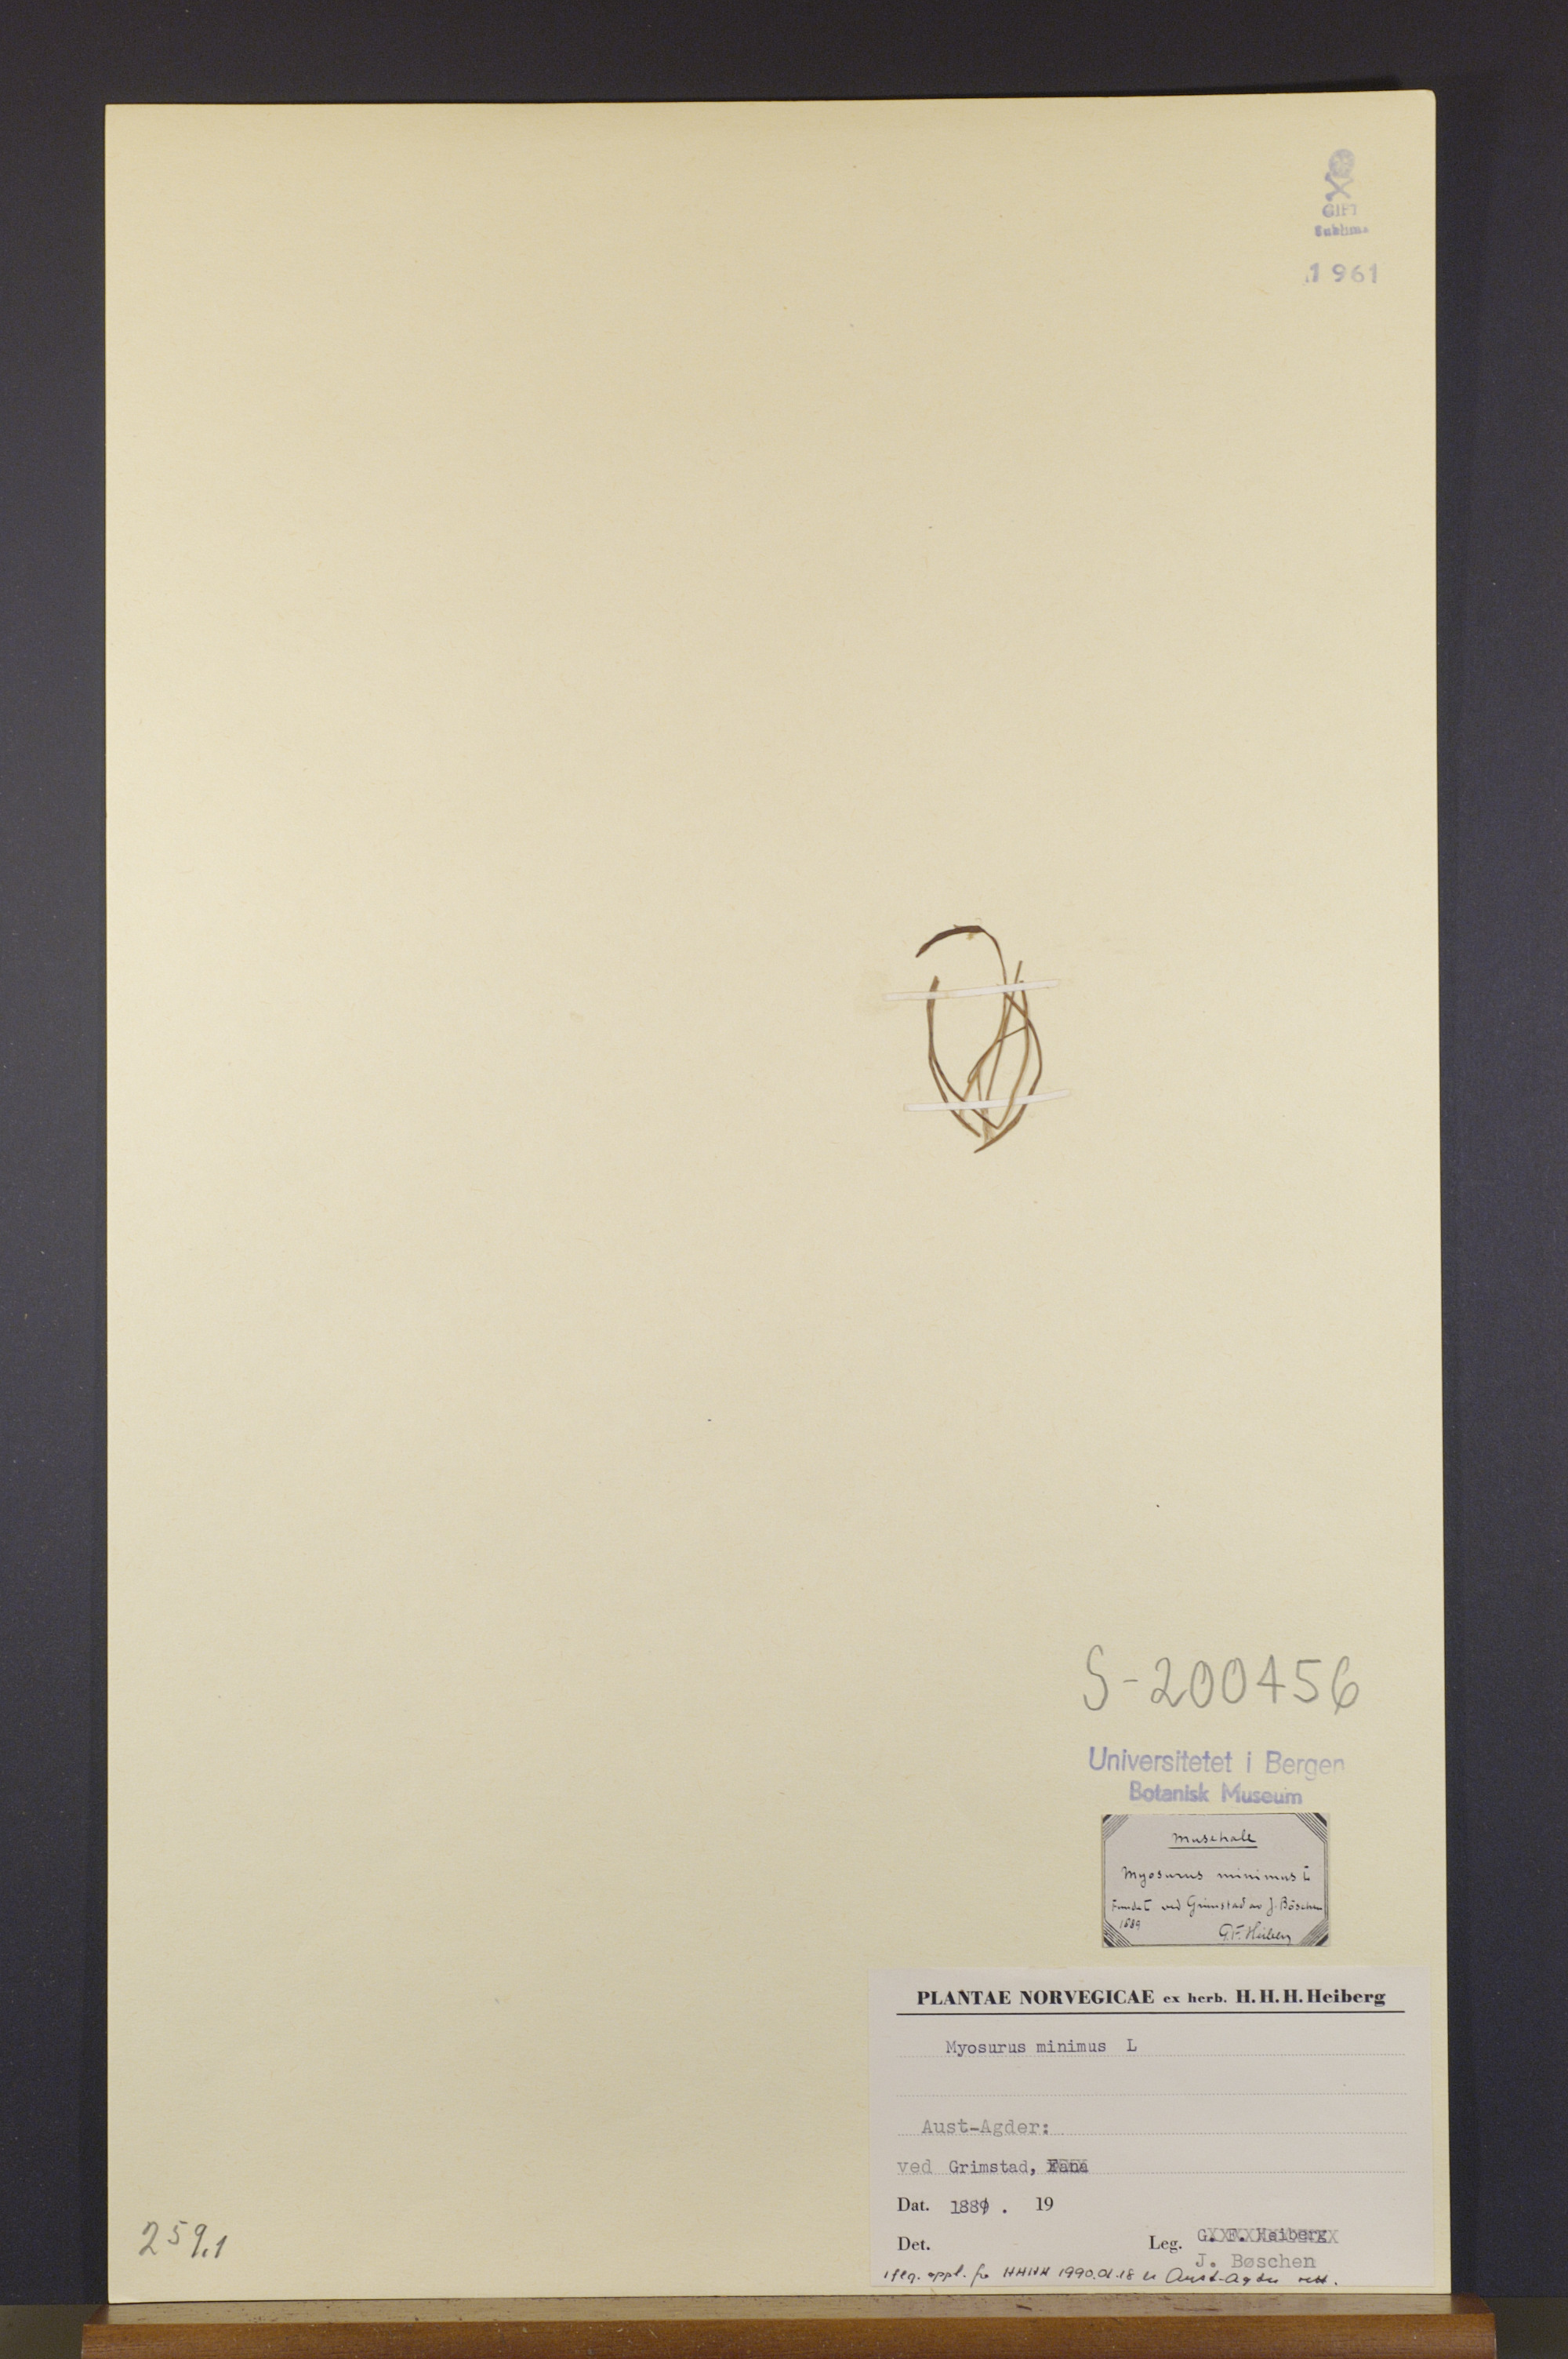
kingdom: Plantae
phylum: Tracheophyta
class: Magnoliopsida
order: Ranunculales
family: Ranunculaceae
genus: Myosurus
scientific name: Myosurus minimus
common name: Mousetail
